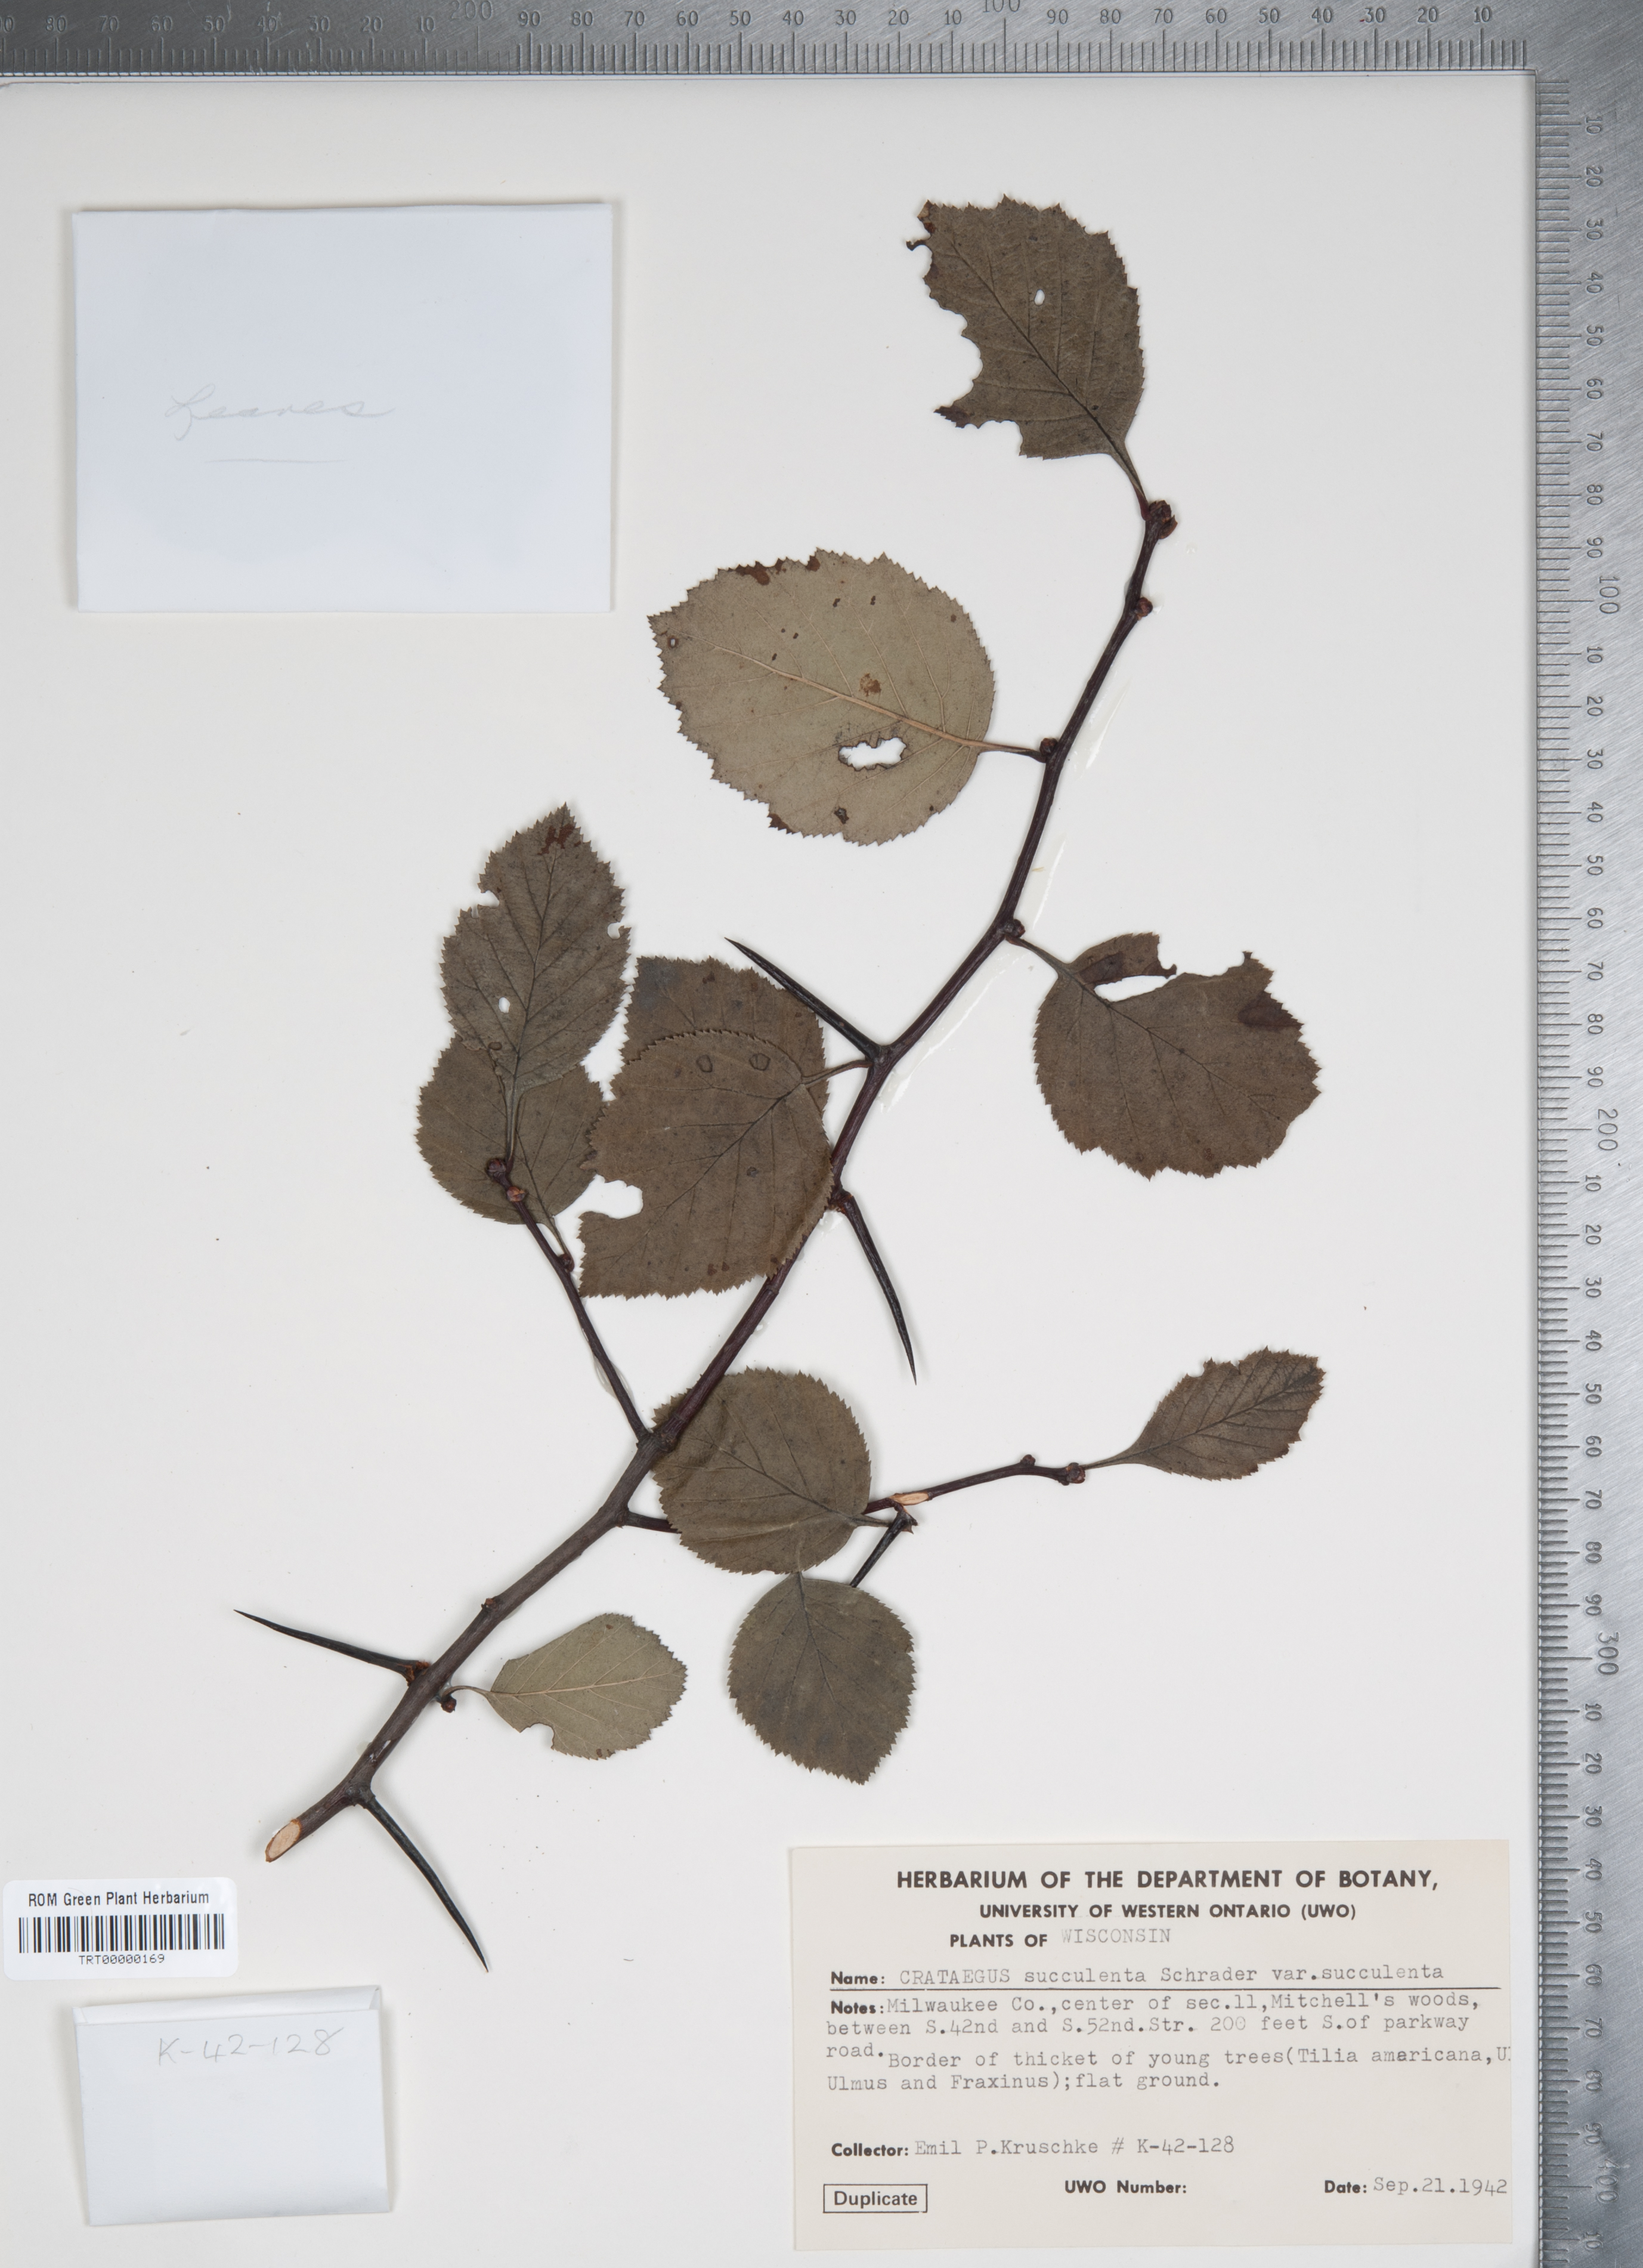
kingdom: Plantae
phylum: Tracheophyta
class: Magnoliopsida
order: Rosales
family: Rosaceae
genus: Crataegus
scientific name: Crataegus succulenta
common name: Fleshy hawthorn
